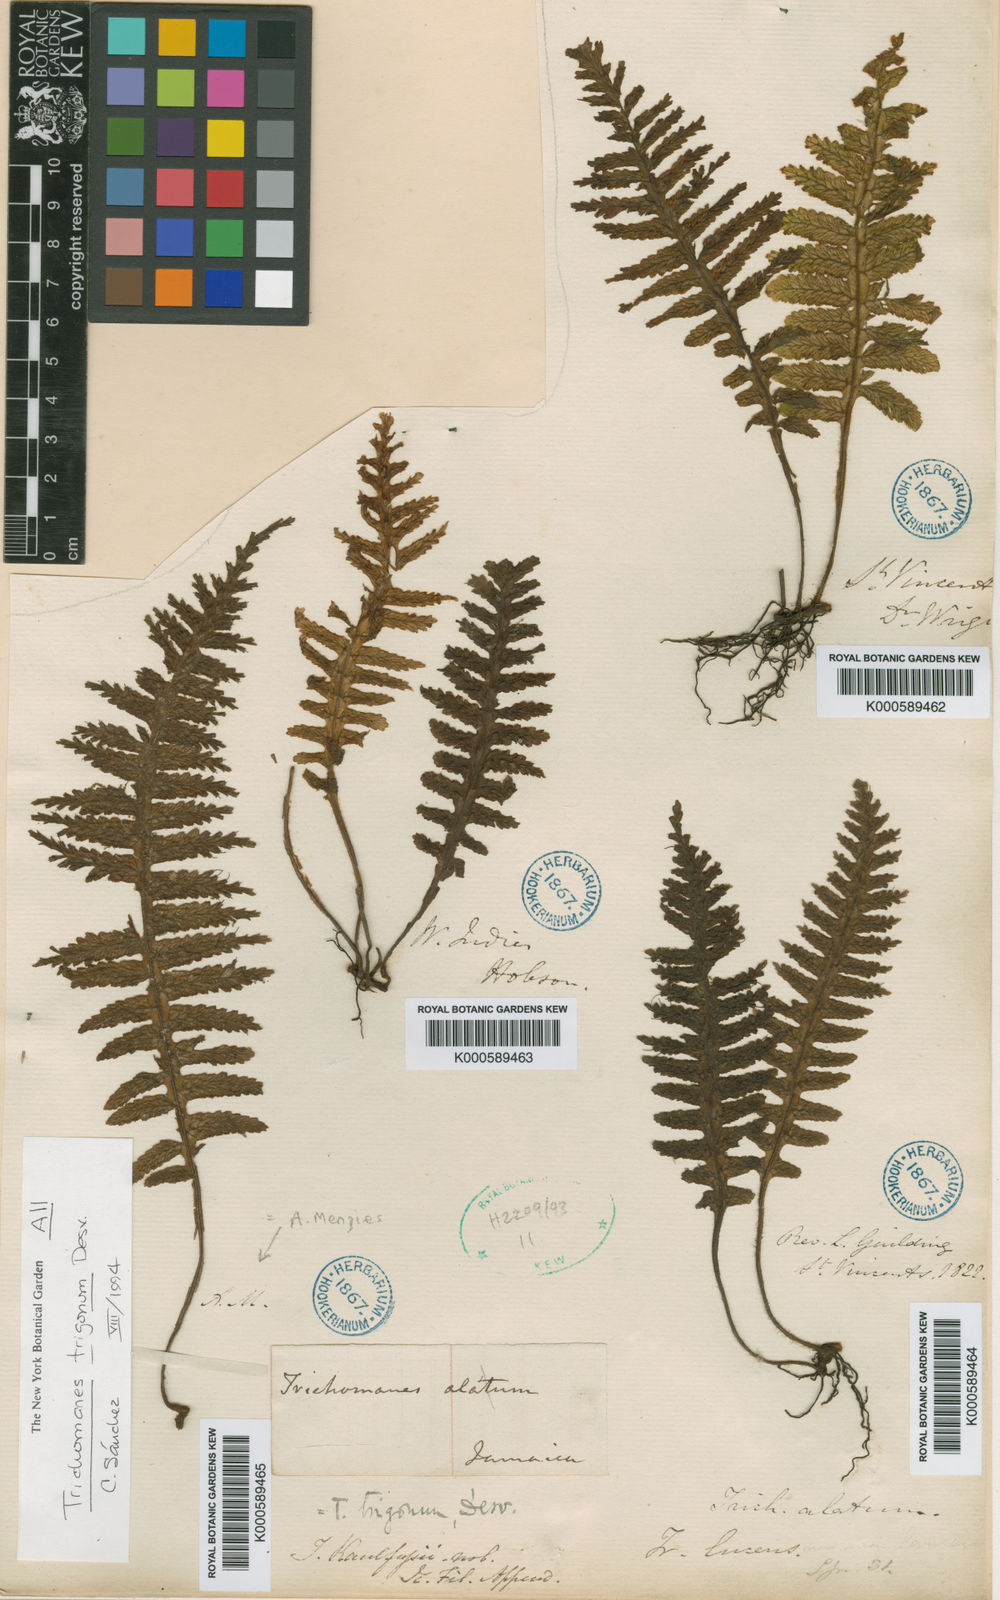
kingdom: Plantae
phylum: Tracheophyta
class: Polypodiopsida
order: Hymenophyllales
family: Hymenophyllaceae
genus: Trichomanes
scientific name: Trichomanes trigonum
